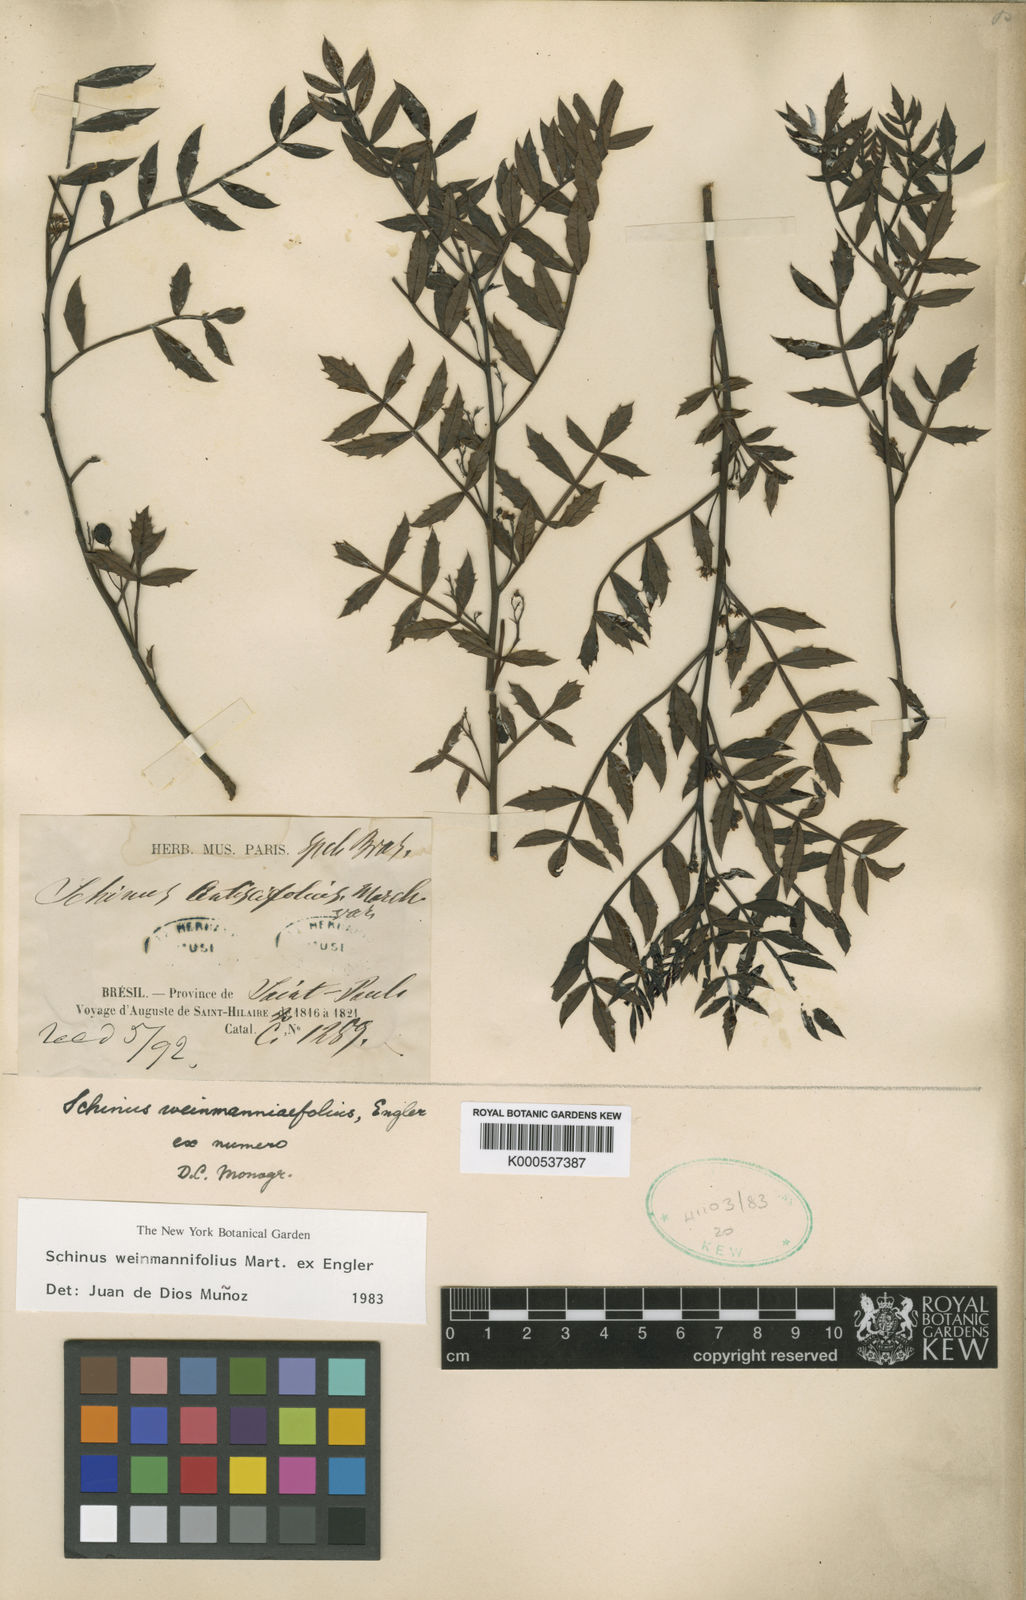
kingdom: Plantae
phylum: Tracheophyta
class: Magnoliopsida
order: Sapindales
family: Anacardiaceae
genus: Schinus
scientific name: Schinus
